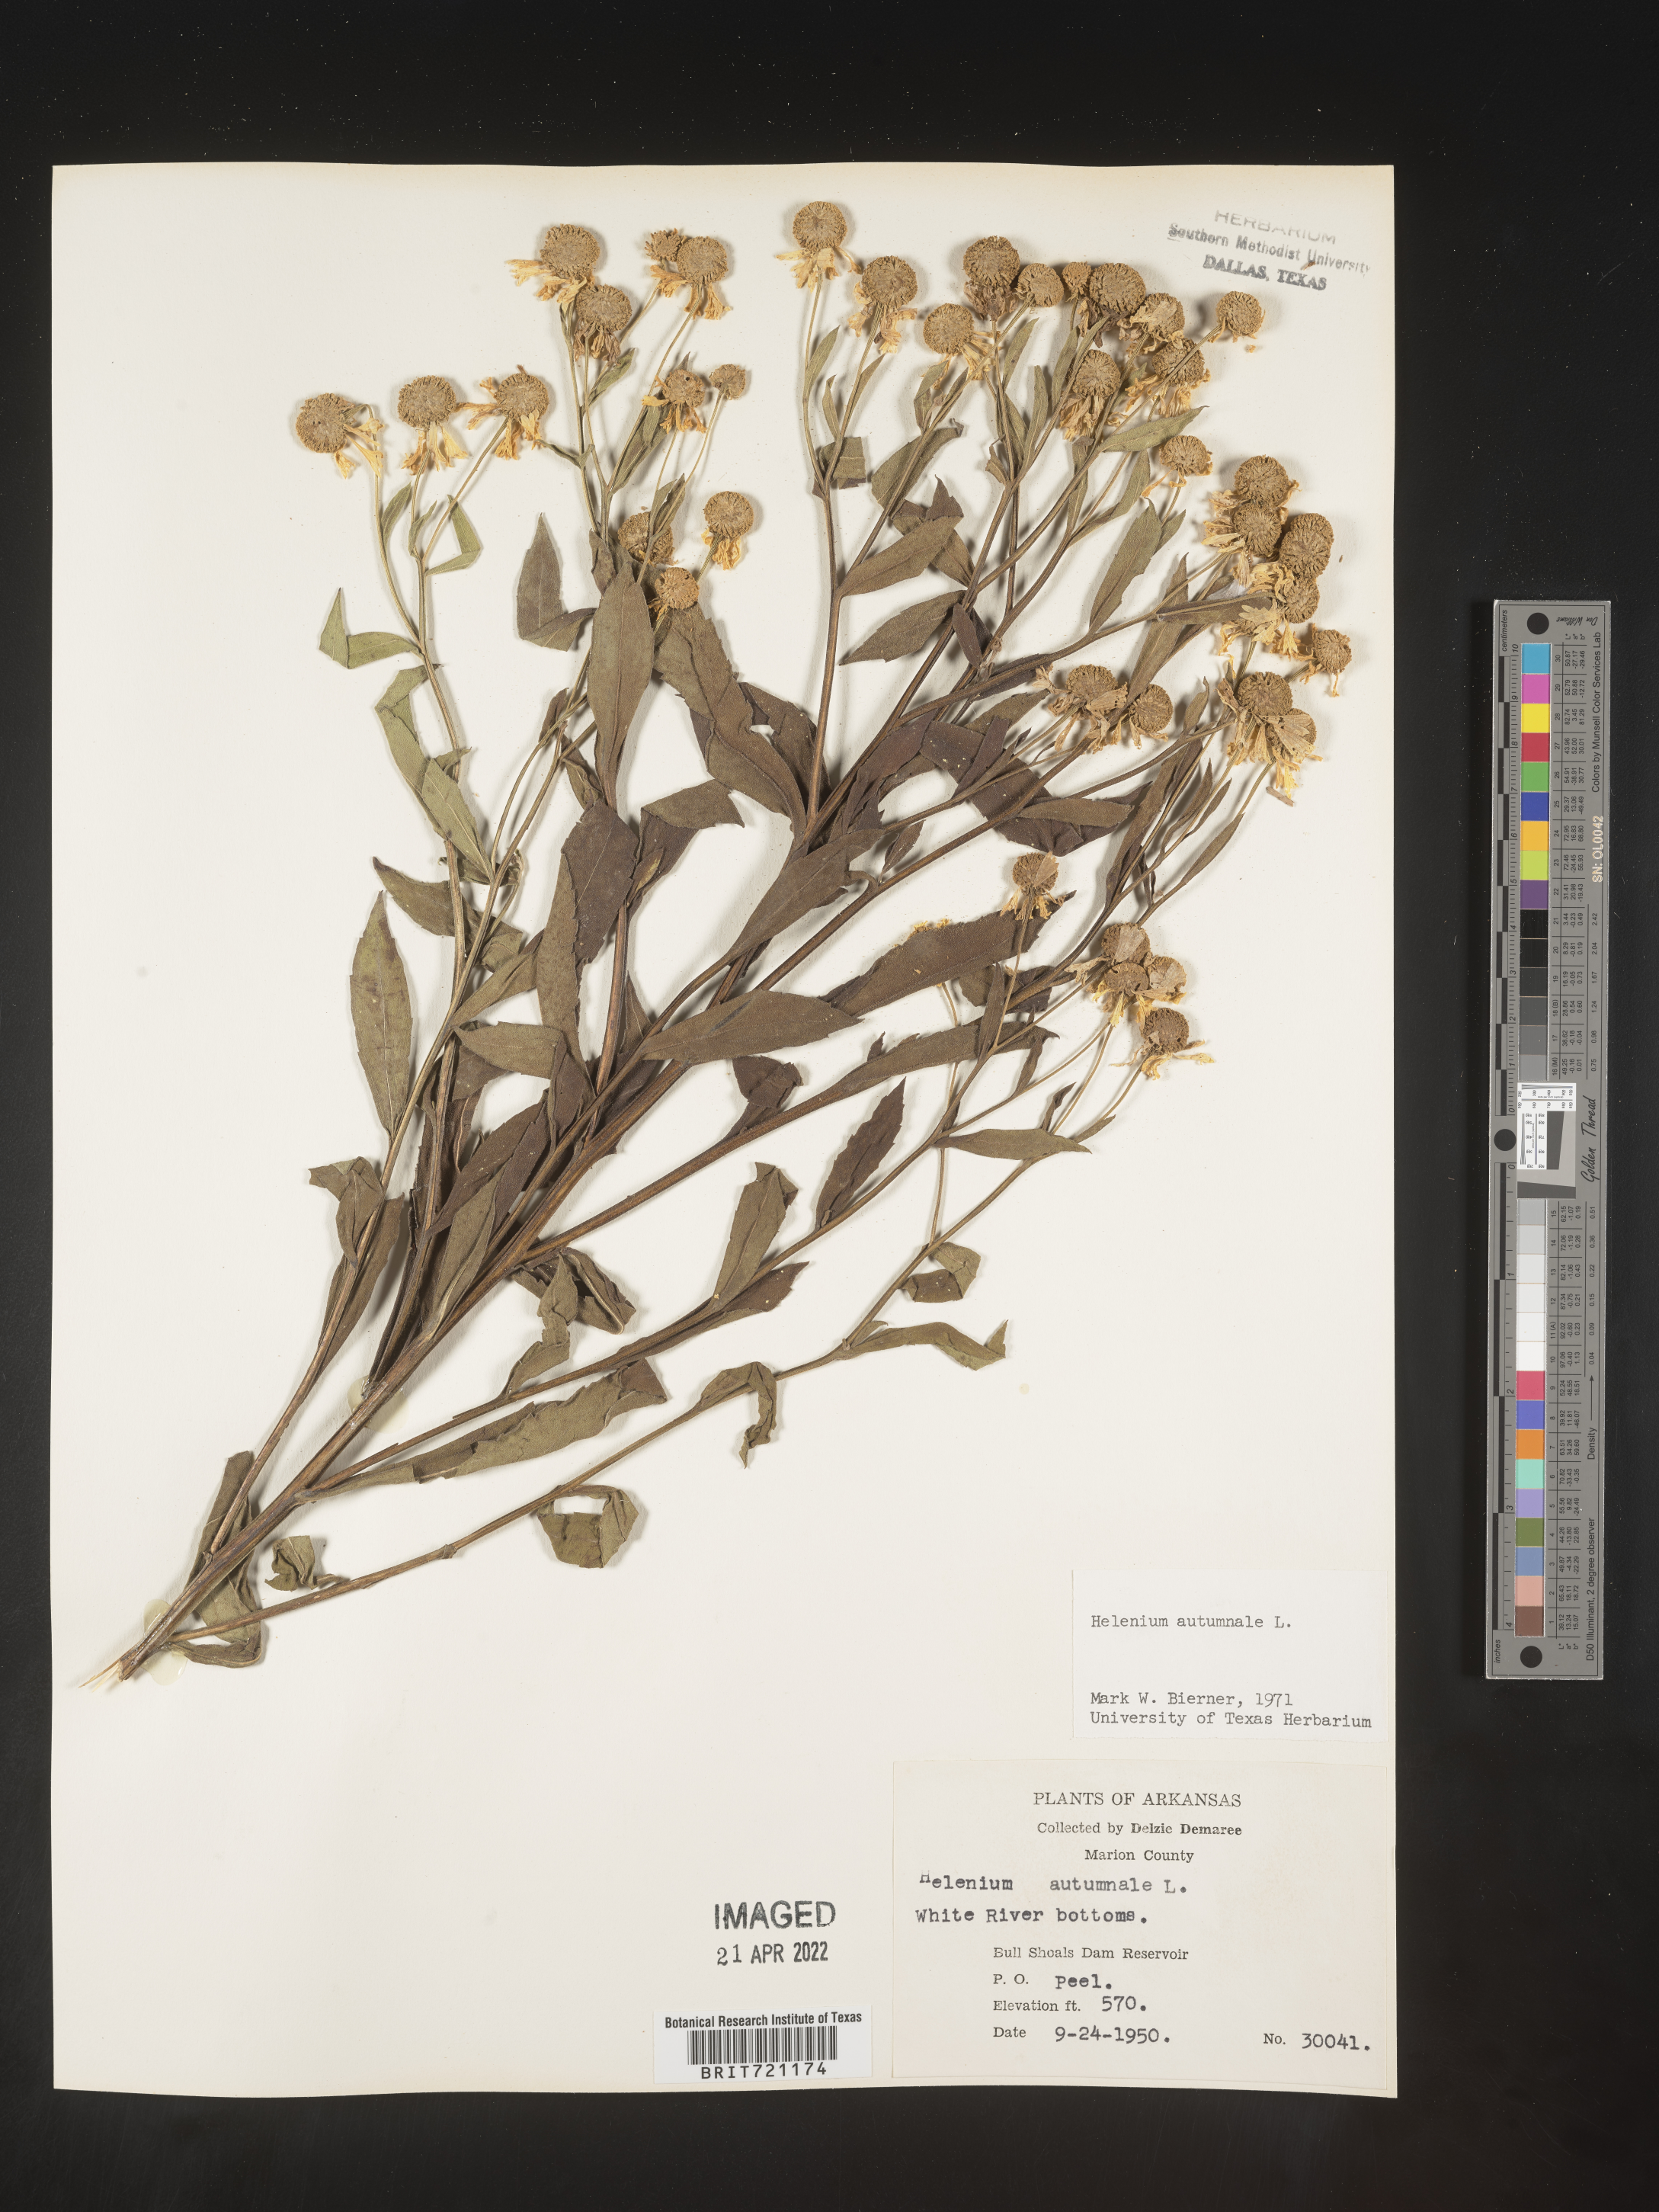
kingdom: Plantae
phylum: Tracheophyta
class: Magnoliopsida
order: Asterales
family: Asteraceae
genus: Helenium
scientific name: Helenium autumnale
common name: Sneezeweed
